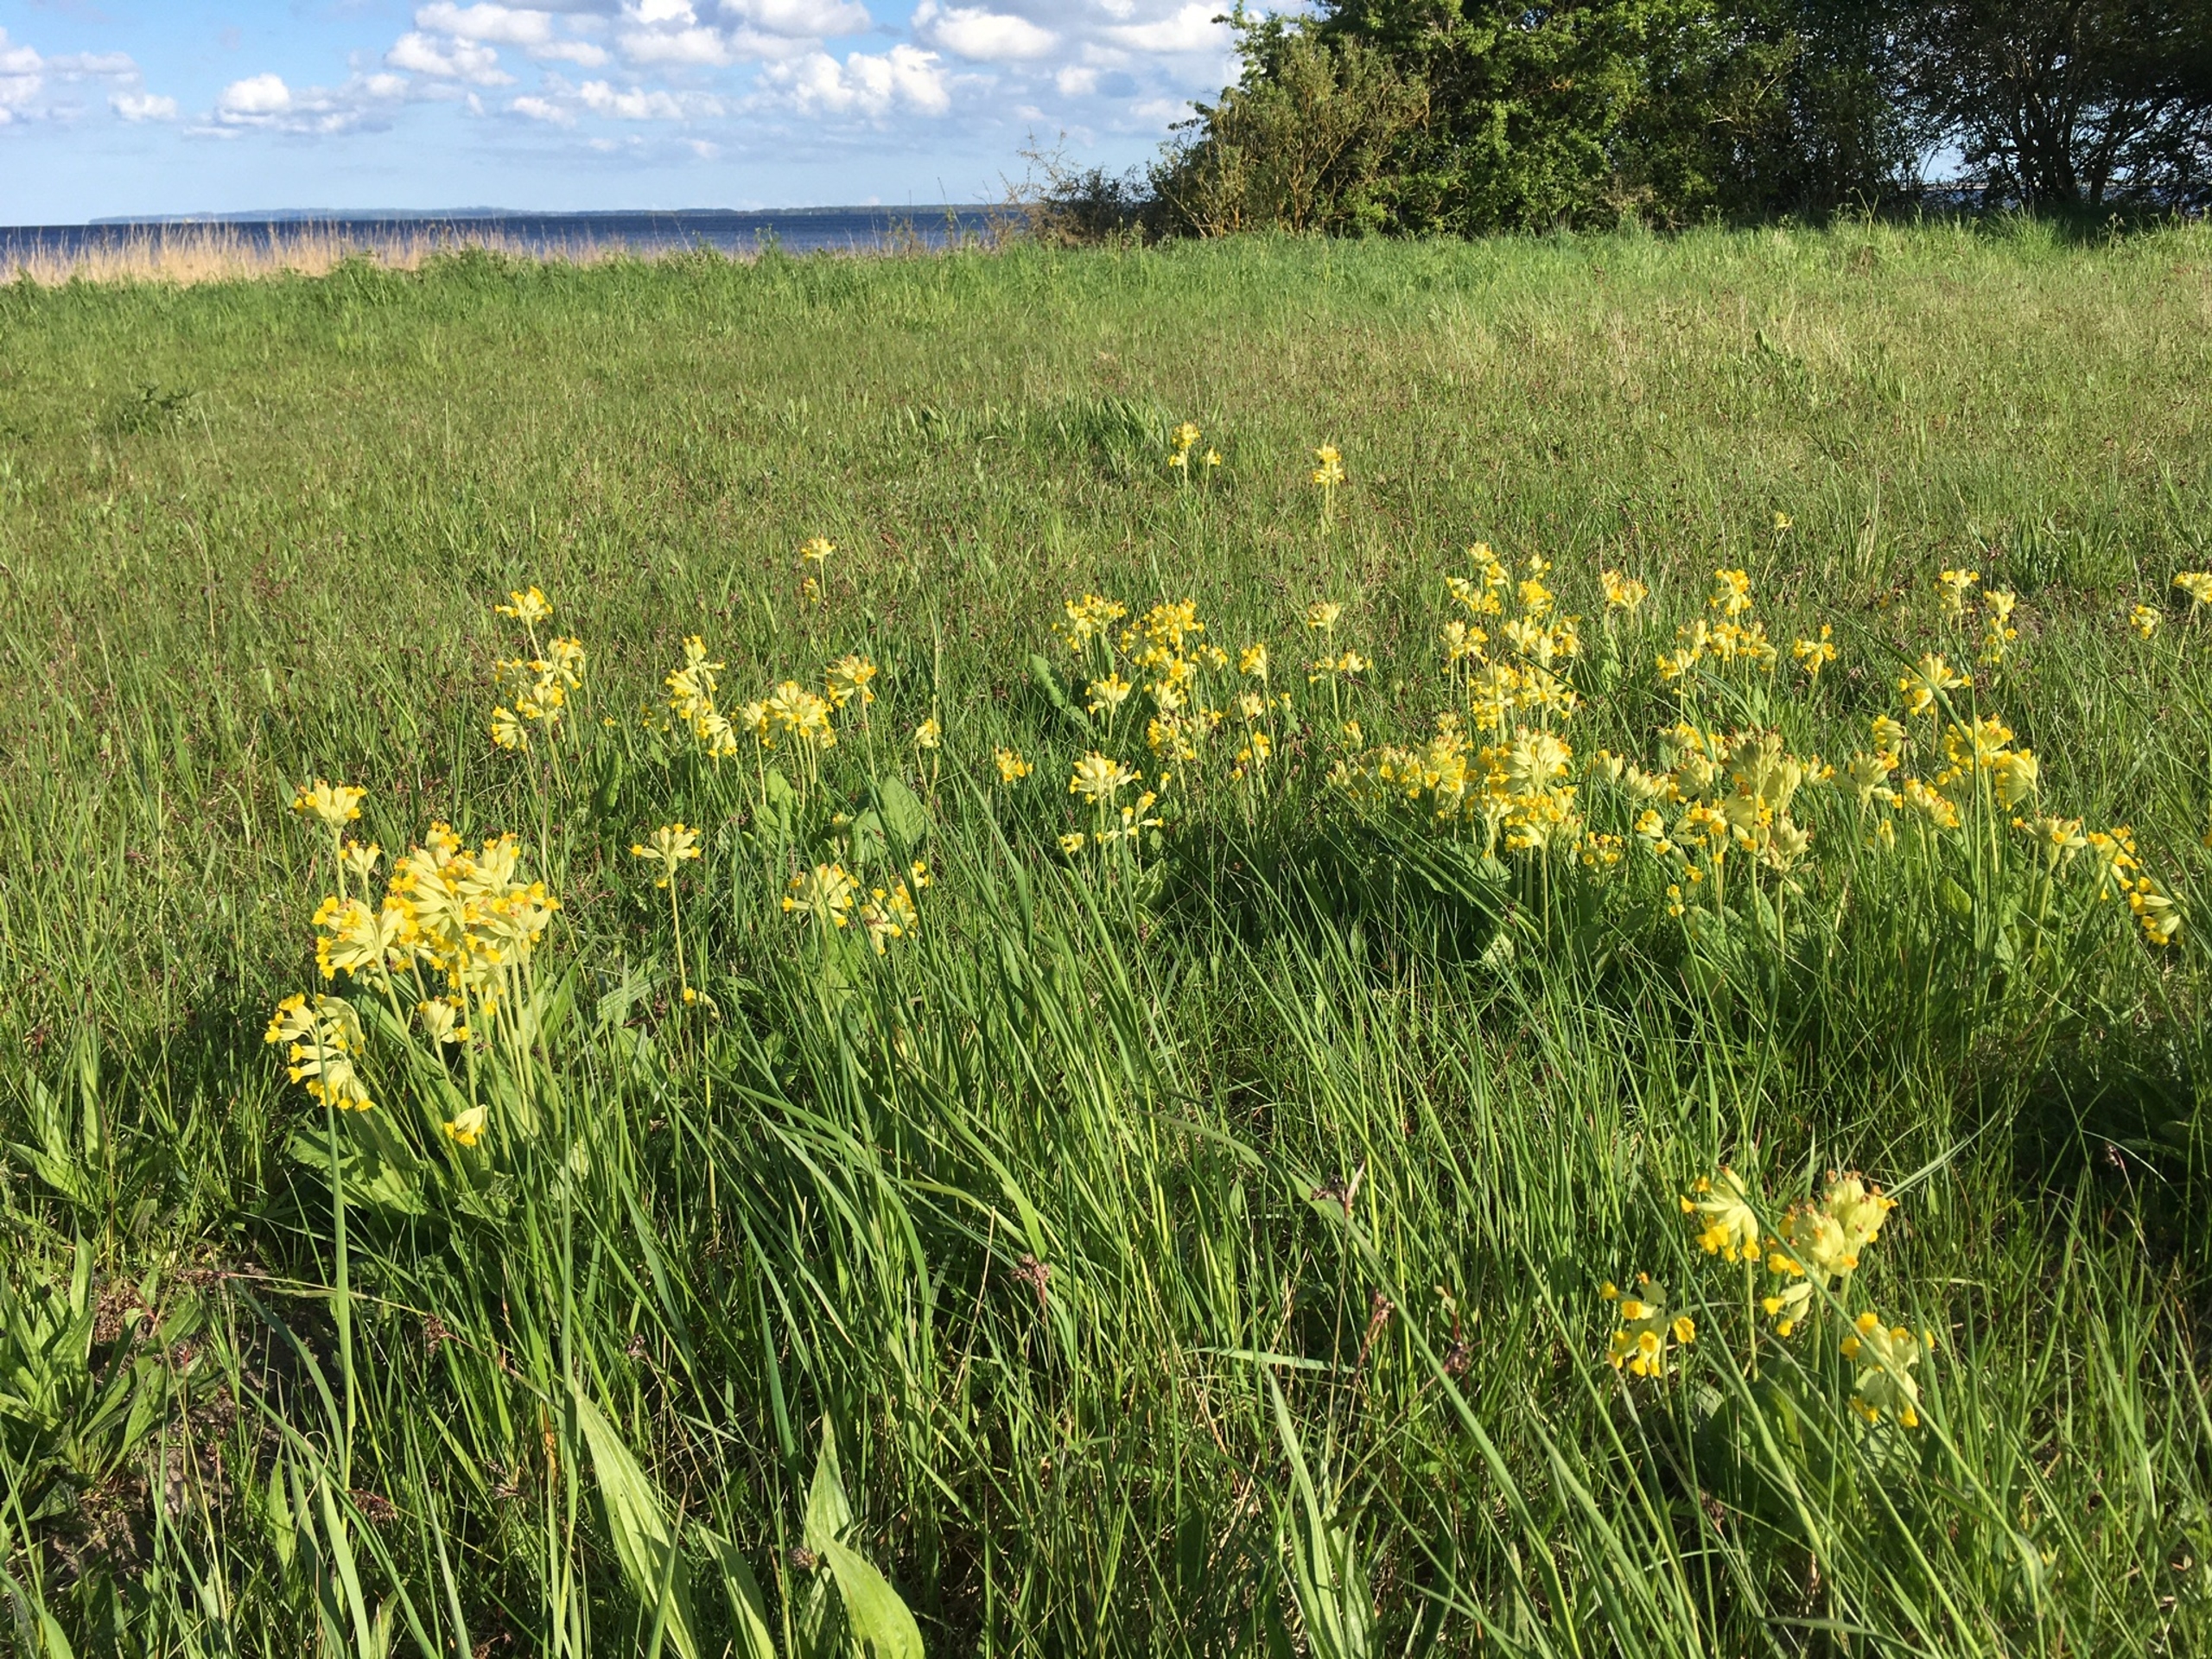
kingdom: Plantae
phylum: Tracheophyta
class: Magnoliopsida
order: Ericales
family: Primulaceae
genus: Primula
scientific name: Primula veris
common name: Hulkravet kodriver
